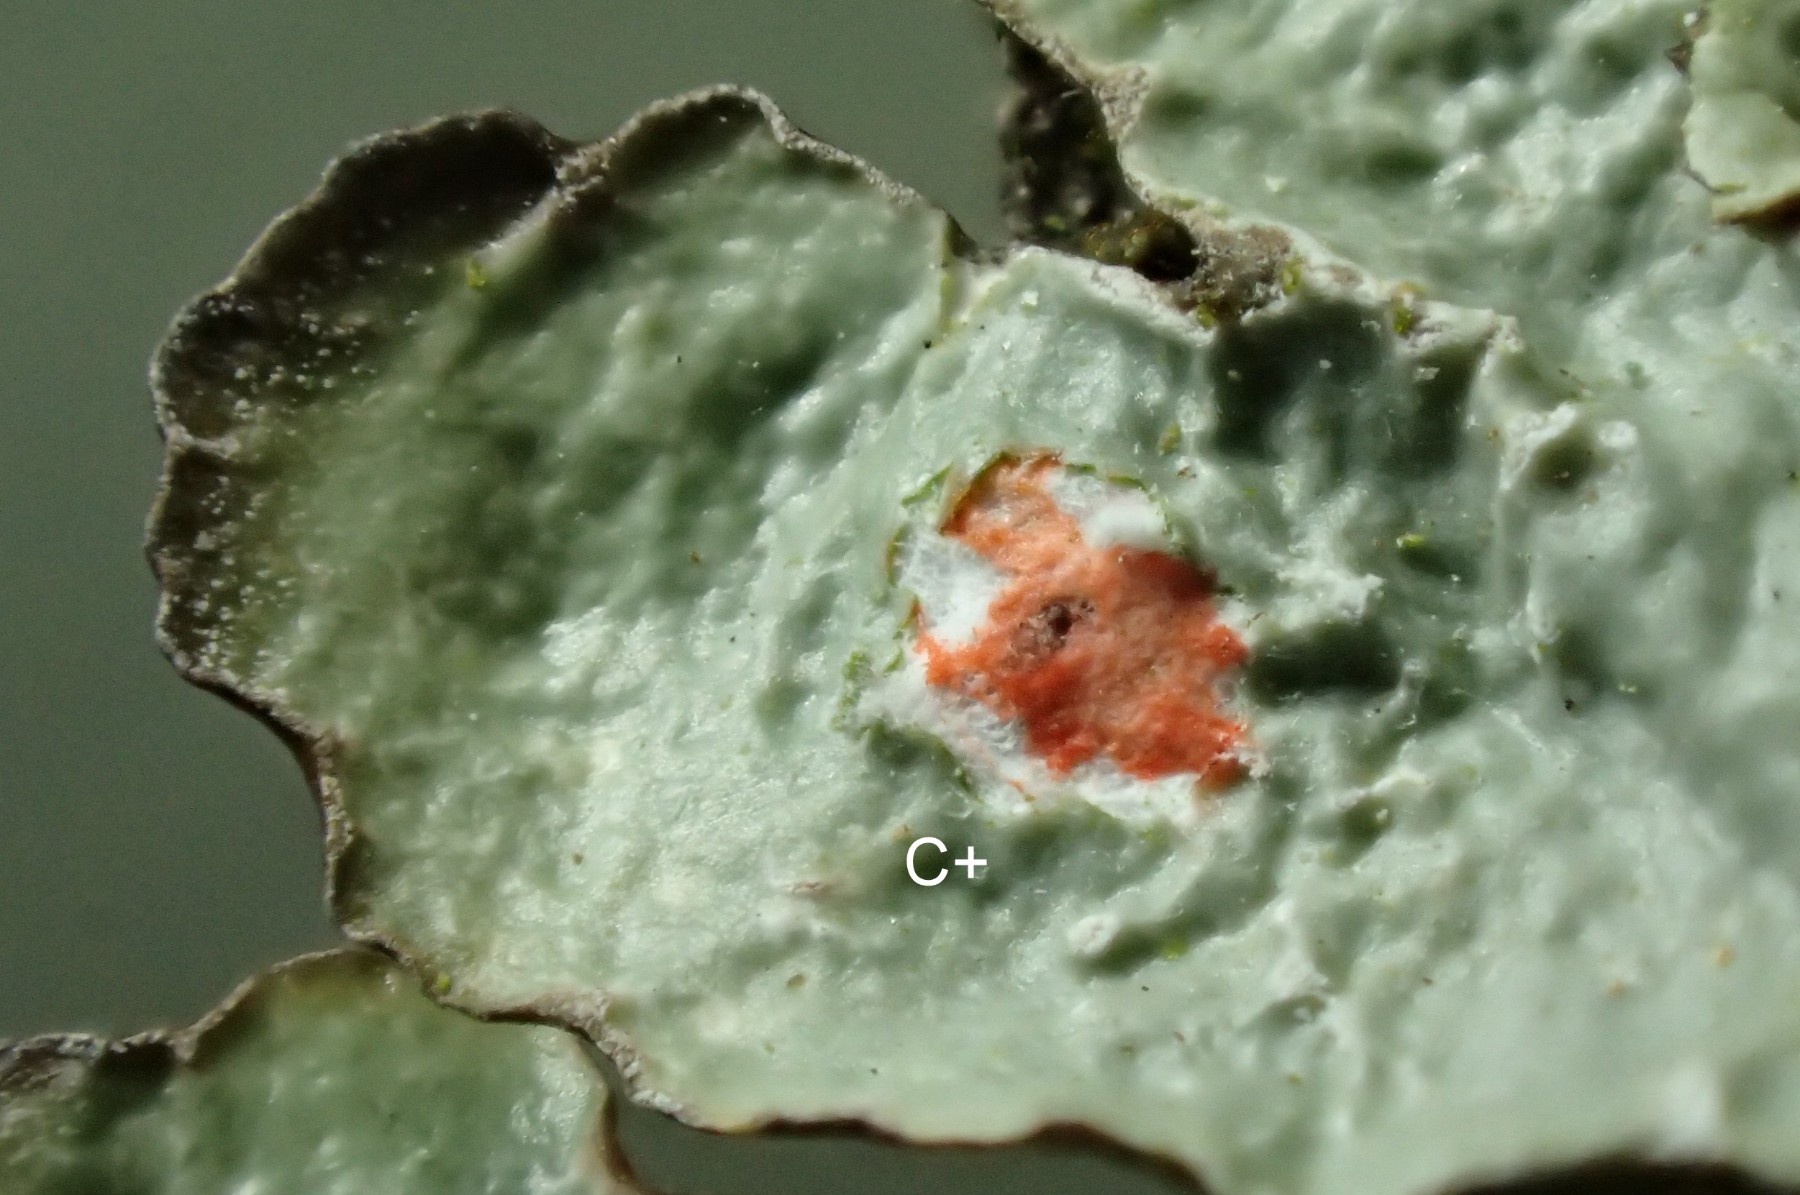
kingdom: Fungi
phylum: Ascomycota
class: Lecanoromycetes
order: Lecanorales
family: Parmeliaceae
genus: Punctelia
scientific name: Punctelia jeckeri
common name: randstøvet skållav
